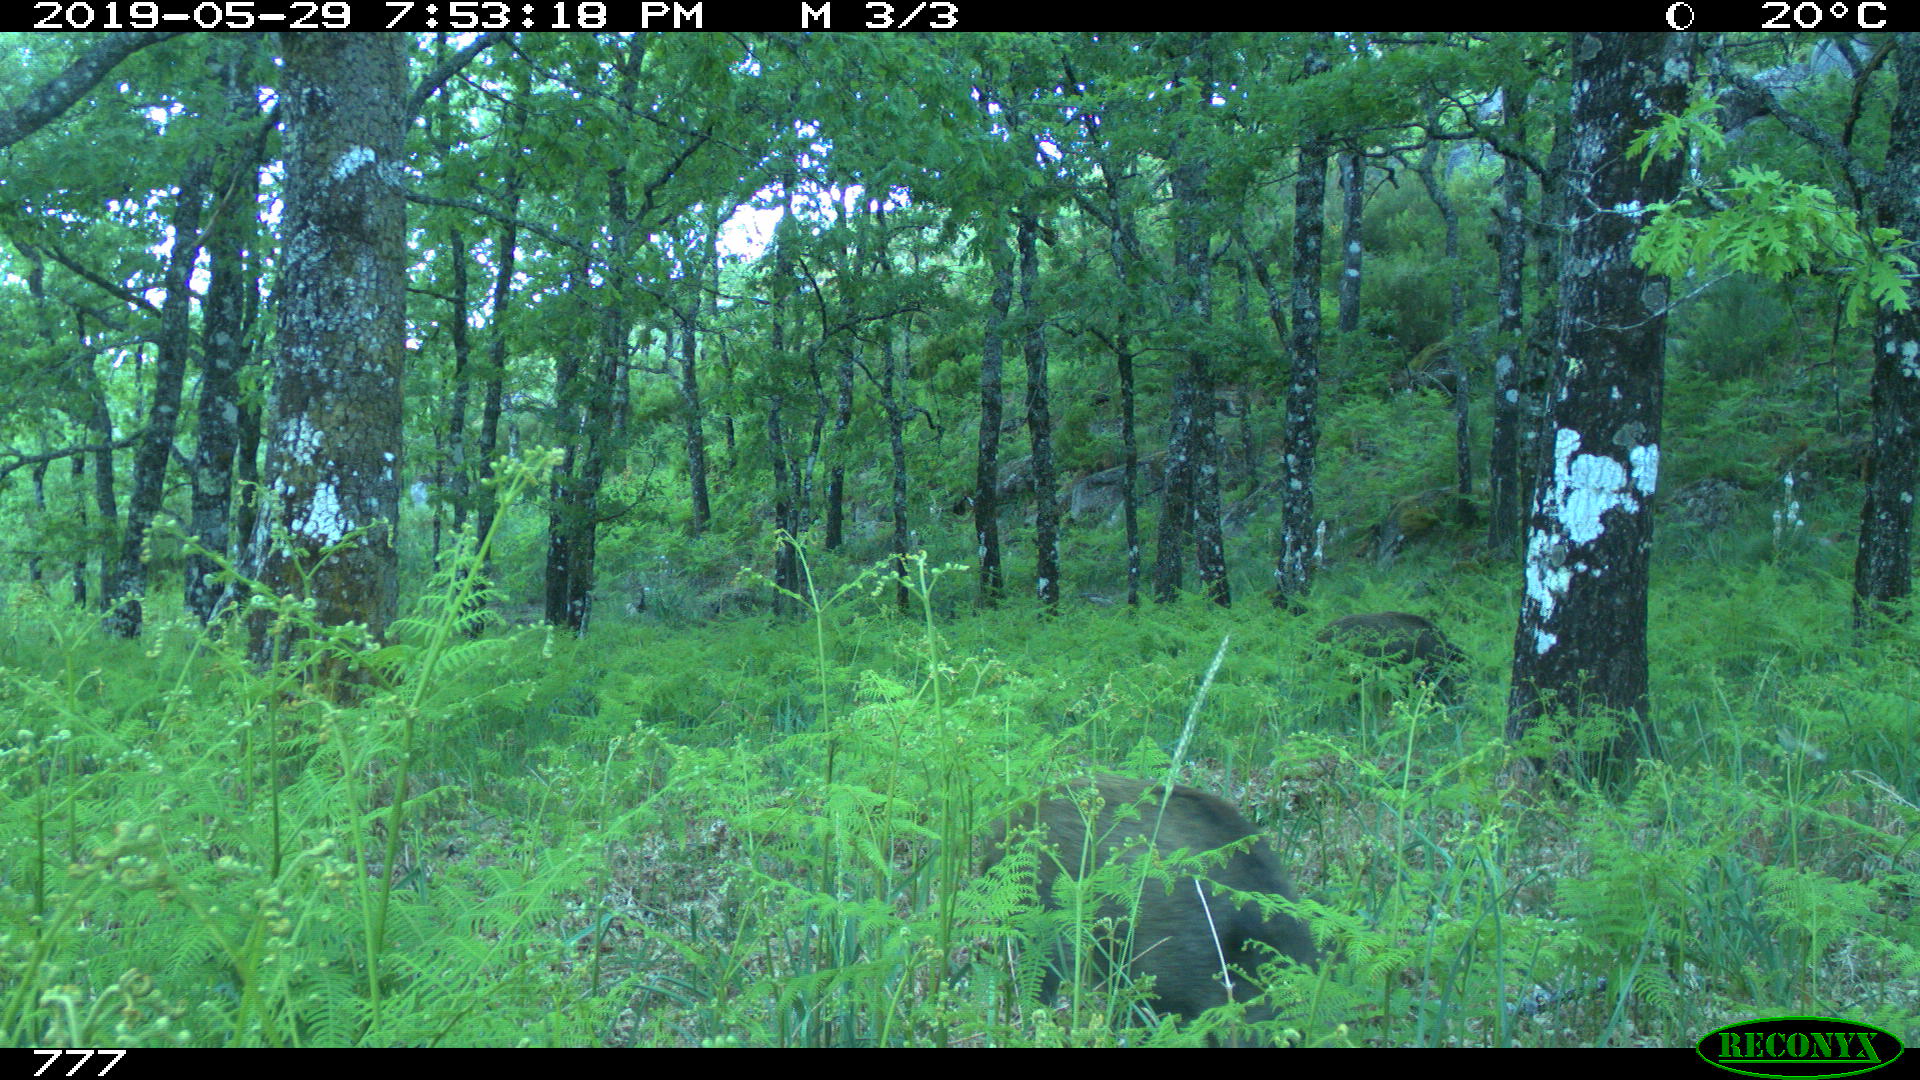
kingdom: Animalia
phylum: Chordata
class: Mammalia
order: Artiodactyla
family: Suidae
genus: Sus
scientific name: Sus scrofa
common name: Wild boar
